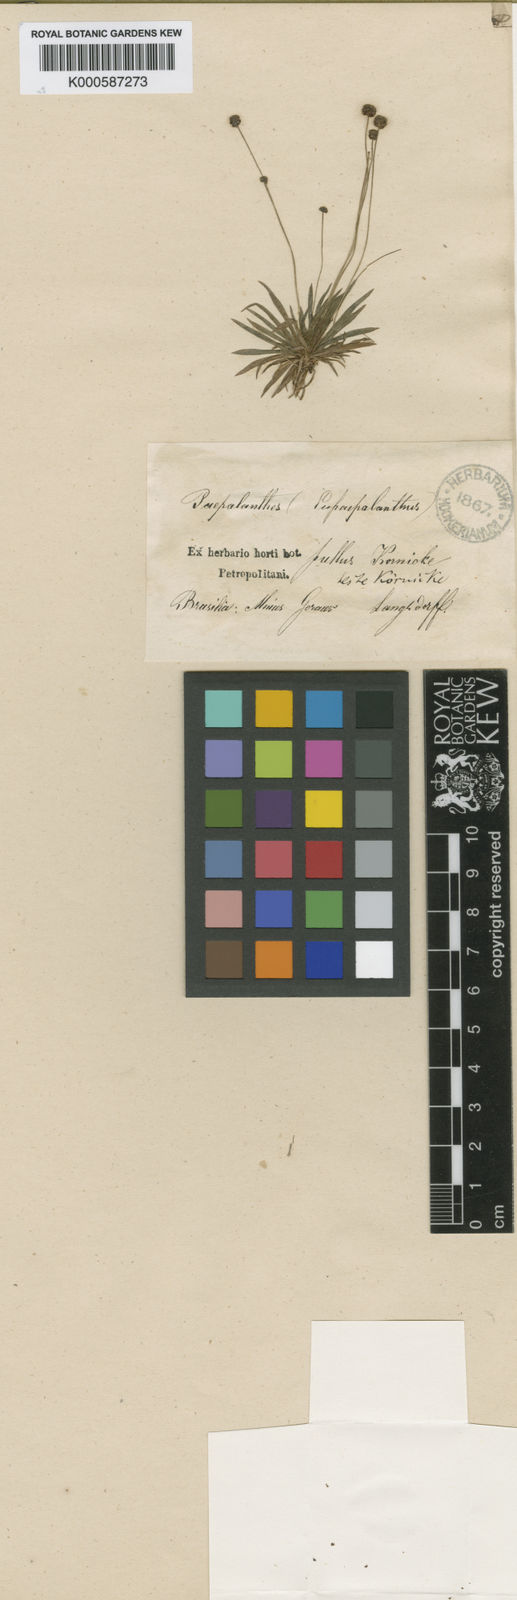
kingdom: Plantae
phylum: Tracheophyta
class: Liliopsida
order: Poales
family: Eriocaulaceae
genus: Paepalanthus
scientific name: Paepalanthus
